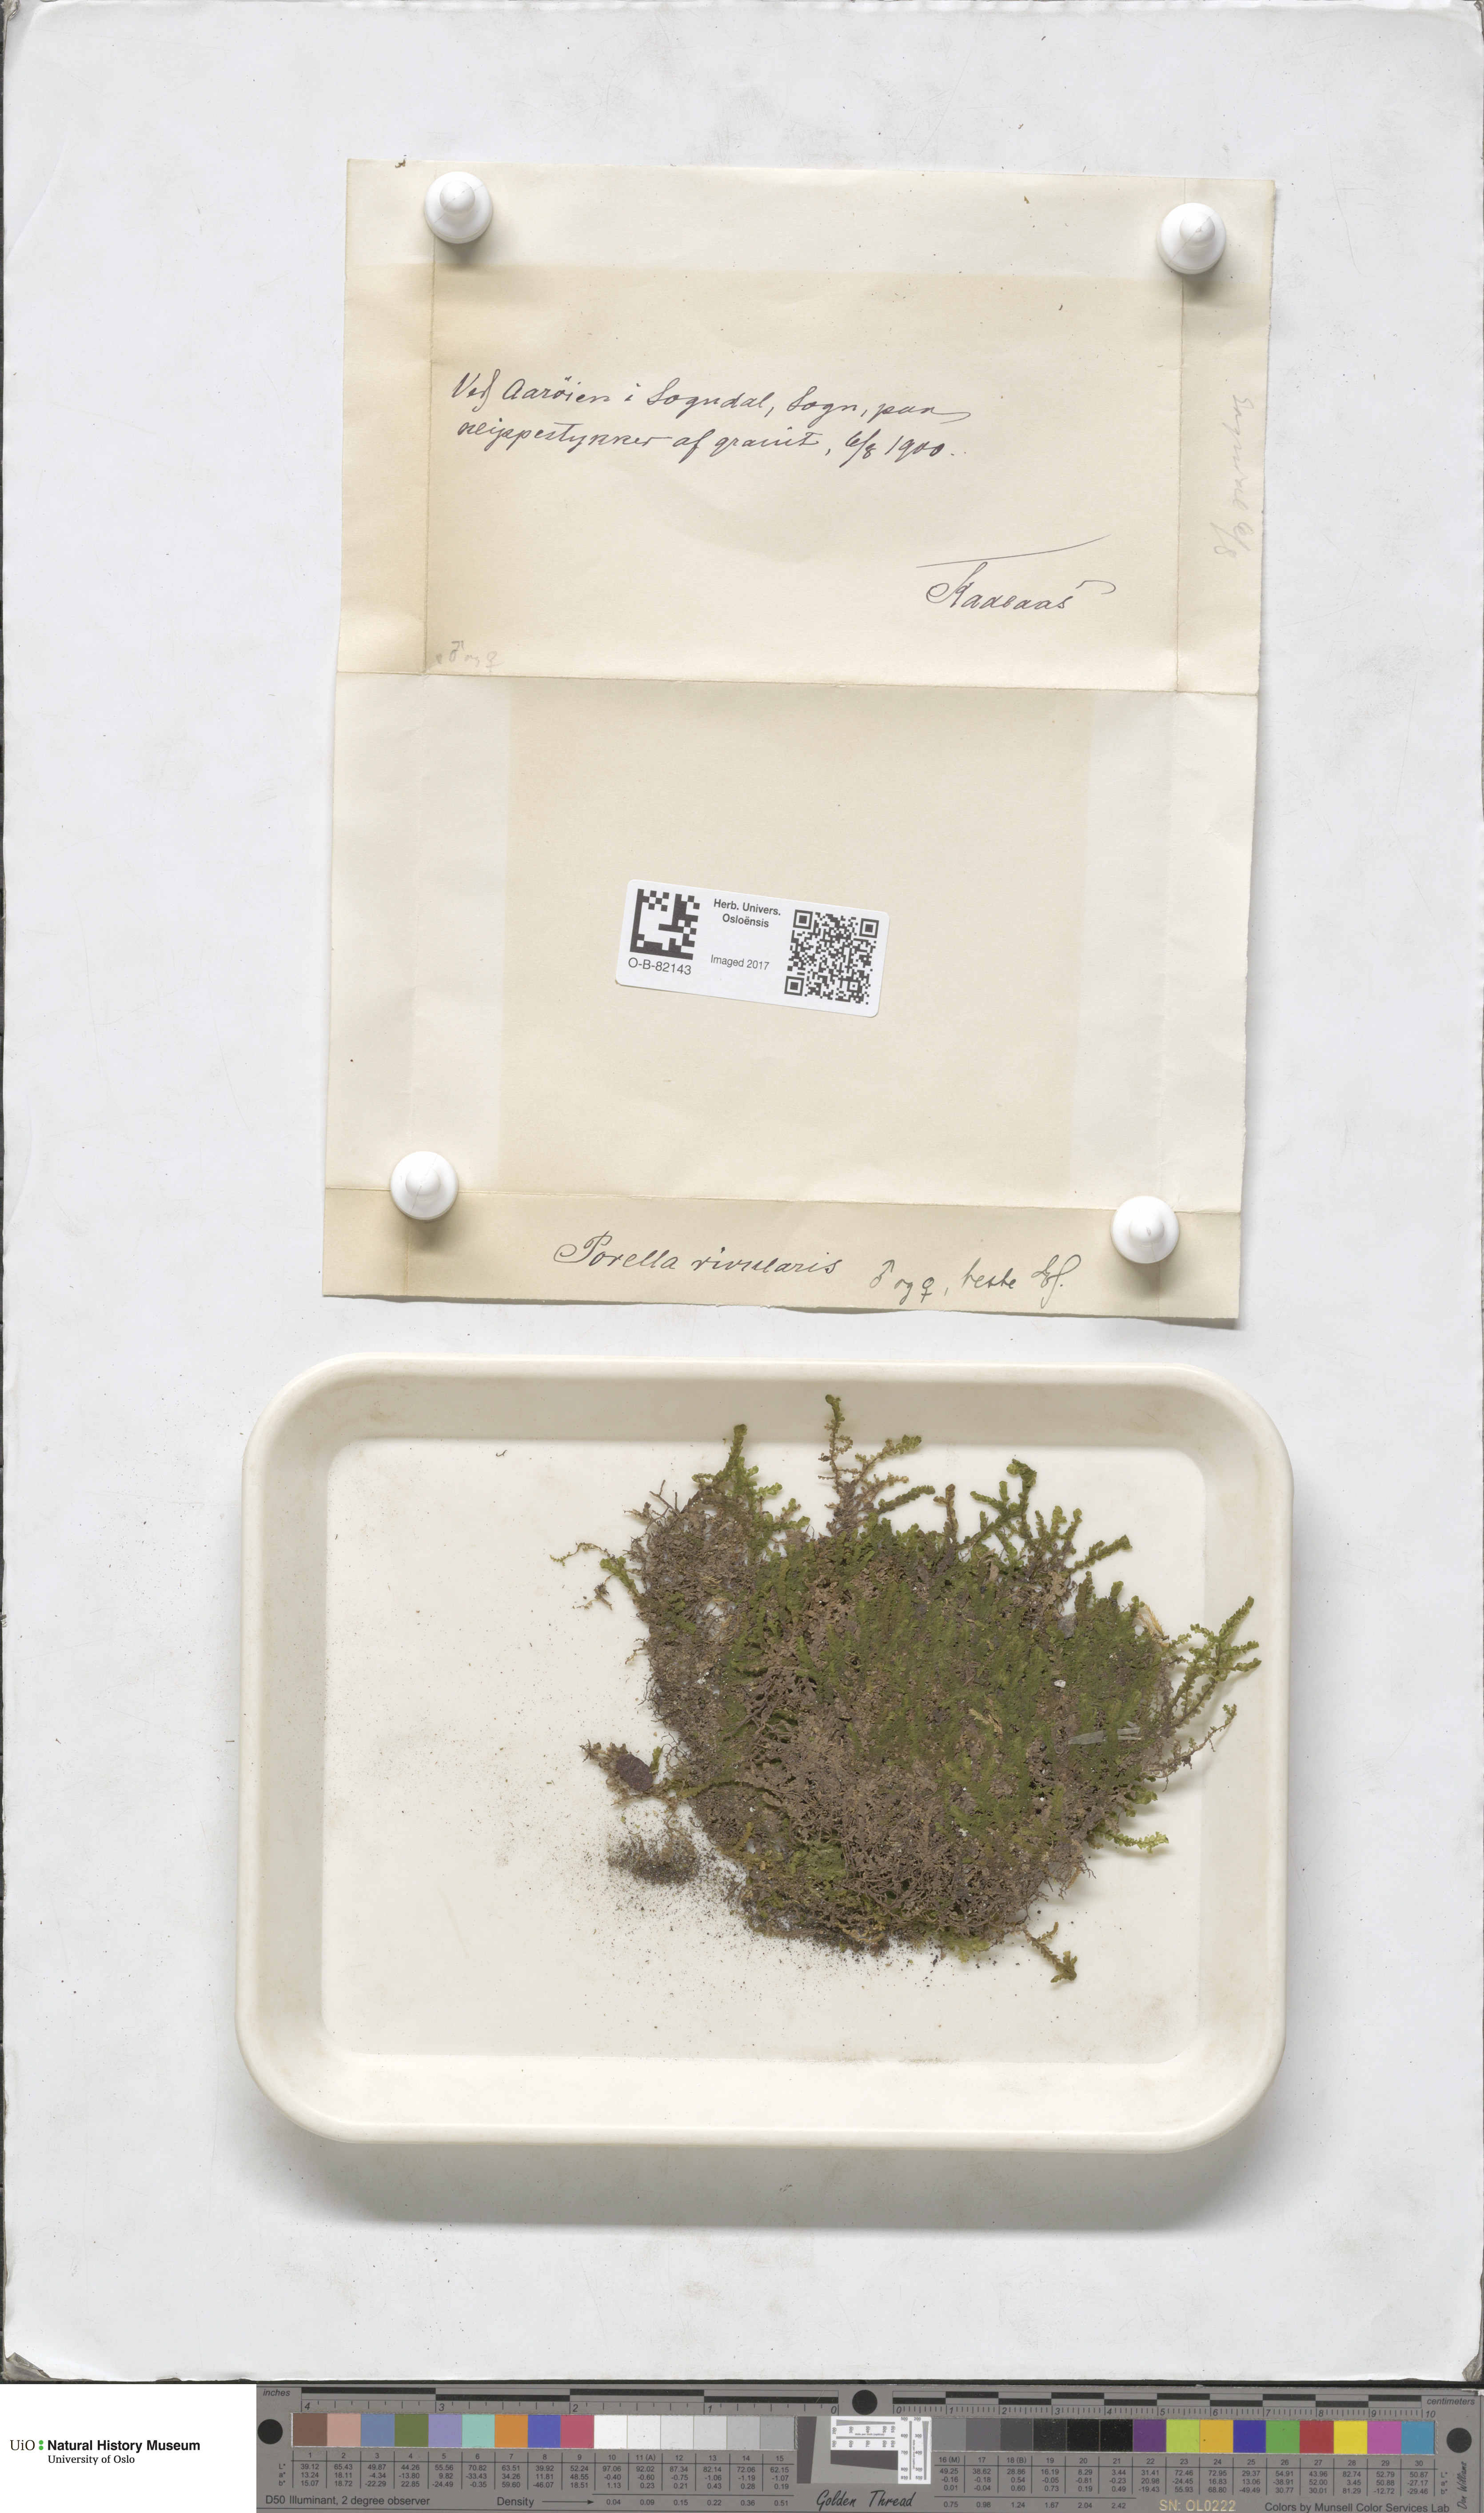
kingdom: Plantae
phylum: Marchantiophyta
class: Jungermanniopsida
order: Porellales
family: Porellaceae
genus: Porella
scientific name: Porella cordaeana
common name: Cliff scalewort
